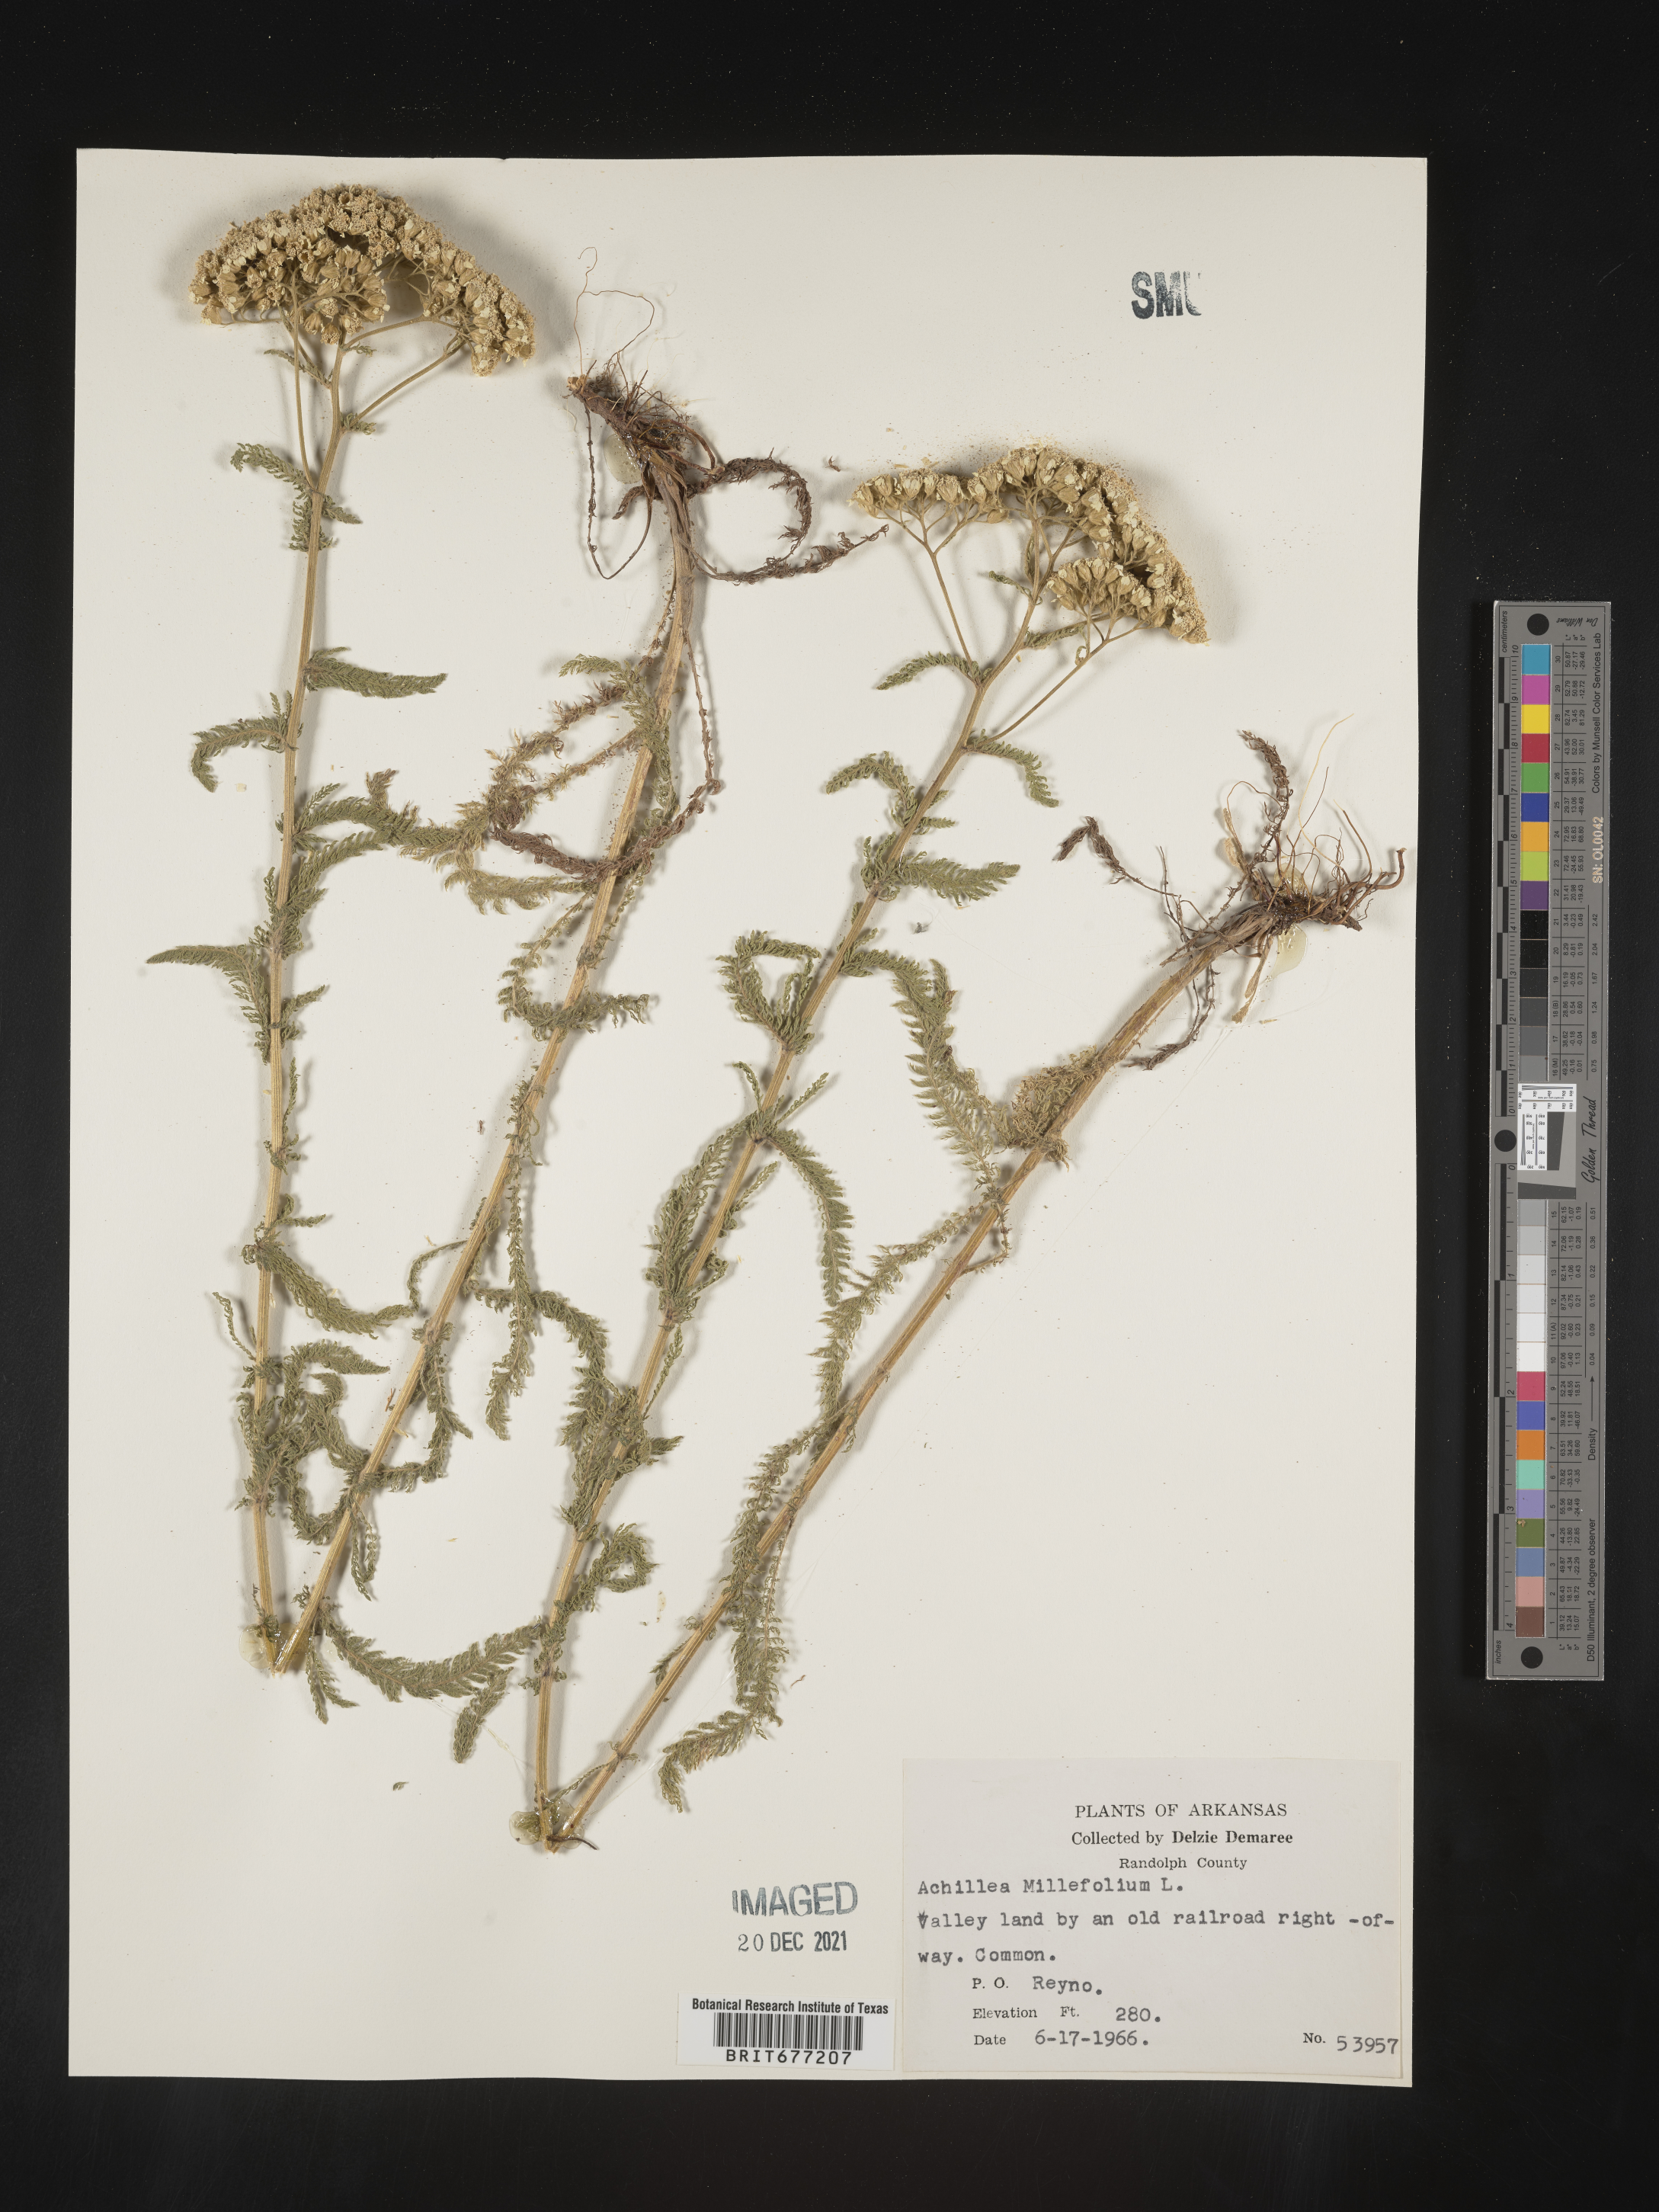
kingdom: Plantae
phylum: Tracheophyta
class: Magnoliopsida
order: Asterales
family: Asteraceae
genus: Achillea
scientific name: Achillea millefolium
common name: Yarrow
